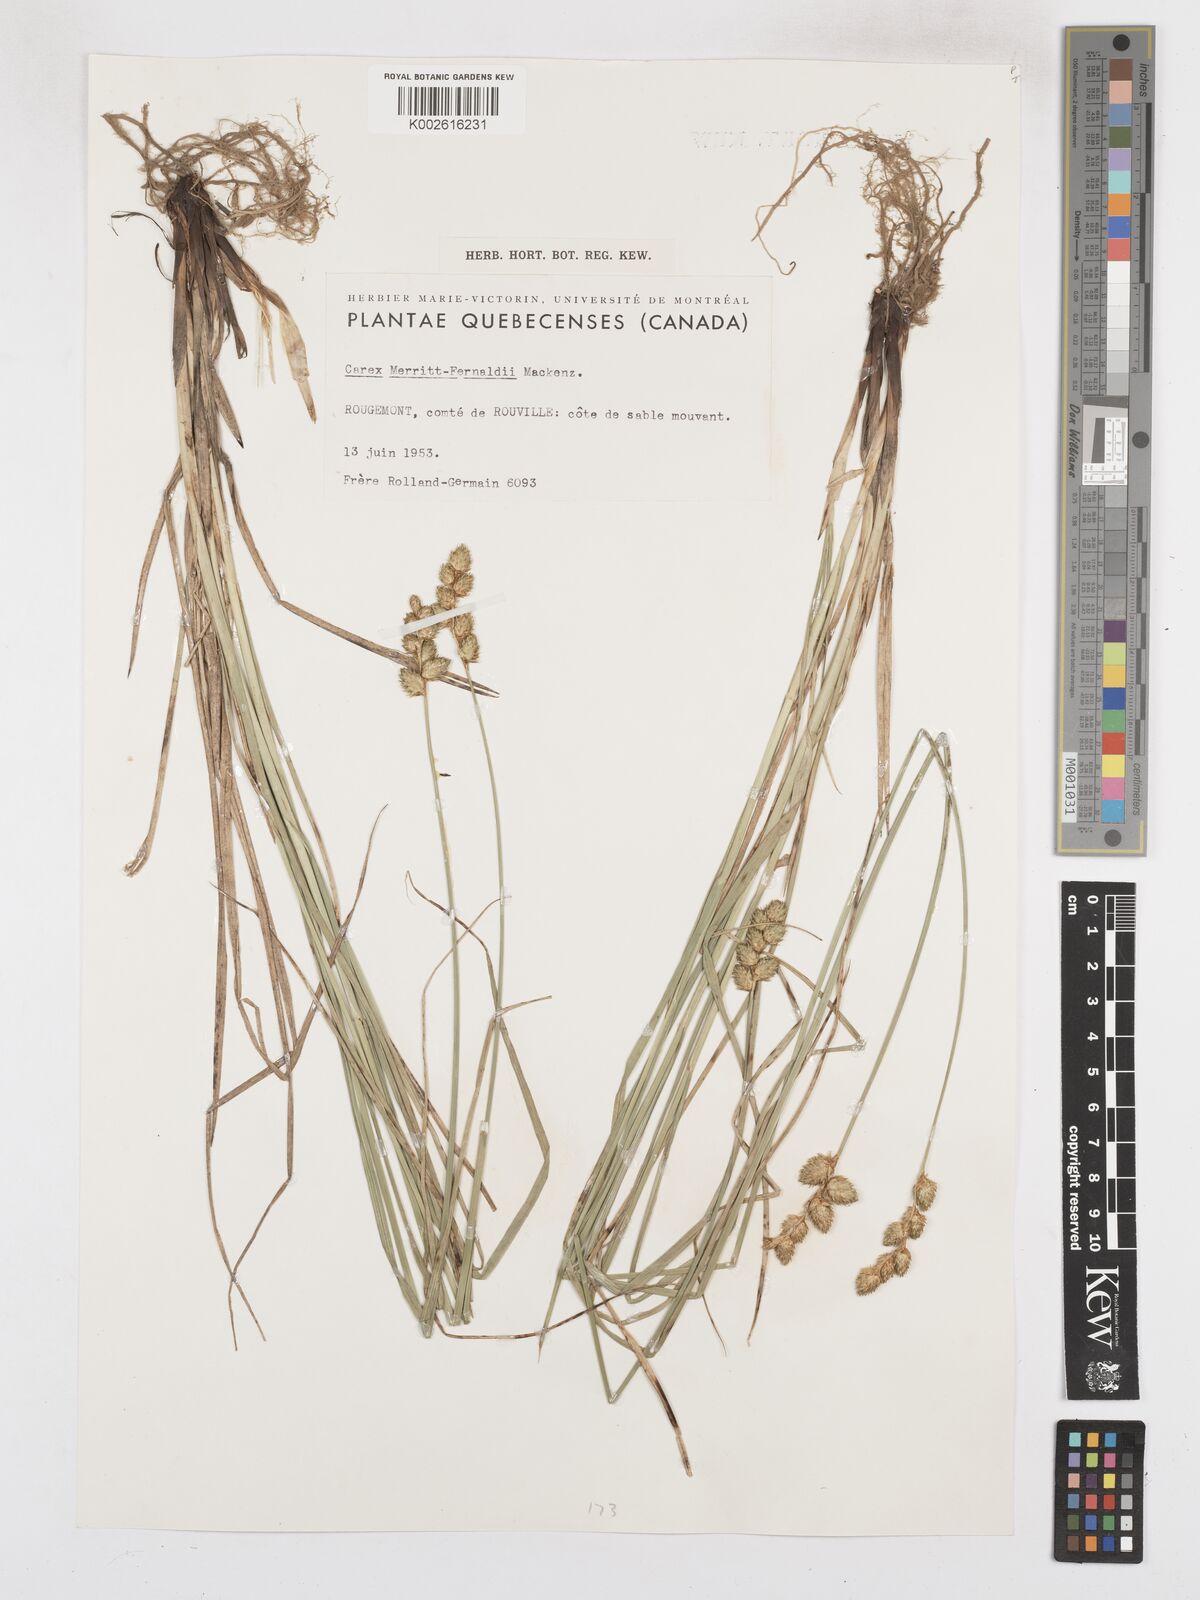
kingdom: Plantae
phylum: Tracheophyta
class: Liliopsida
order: Poales
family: Cyperaceae
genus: Carex
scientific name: Carex merritt-fernaldii
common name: Fernald's oval sedge
